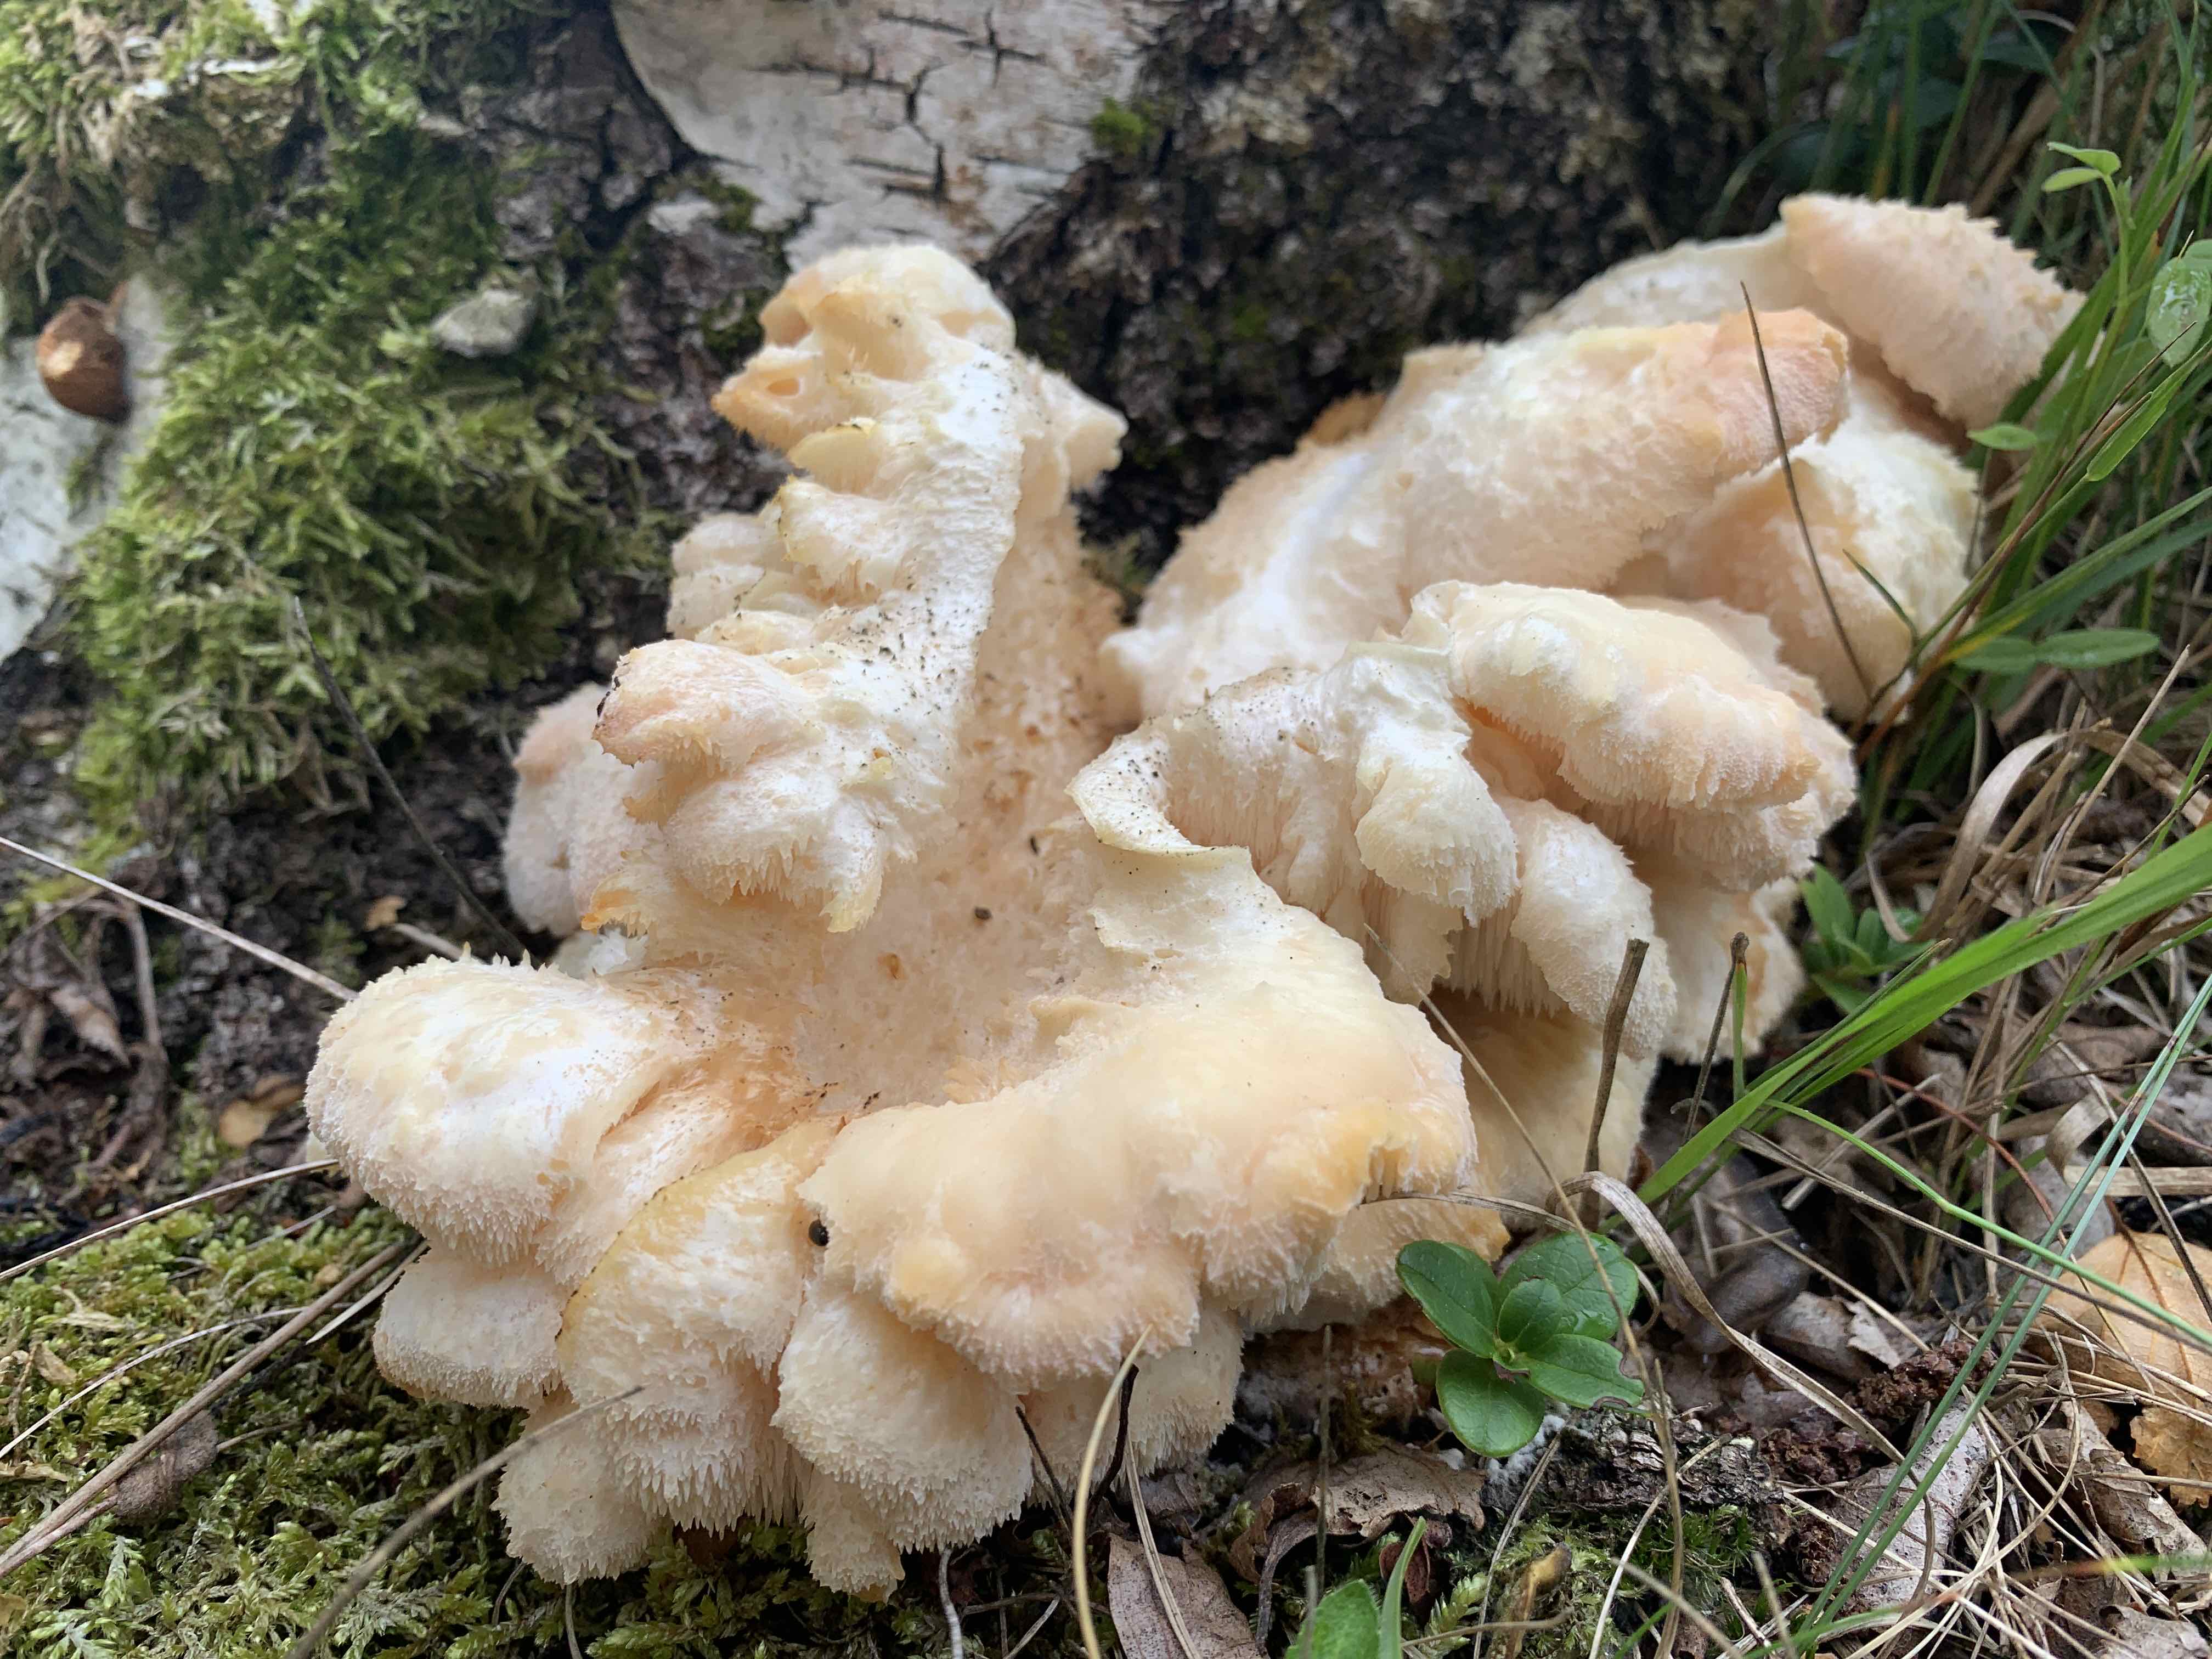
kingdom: Fungi
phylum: Basidiomycota
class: Agaricomycetes
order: Russulales
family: Hericiaceae
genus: Hericium
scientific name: Hericium cirrhatum
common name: børstepigsvamp
